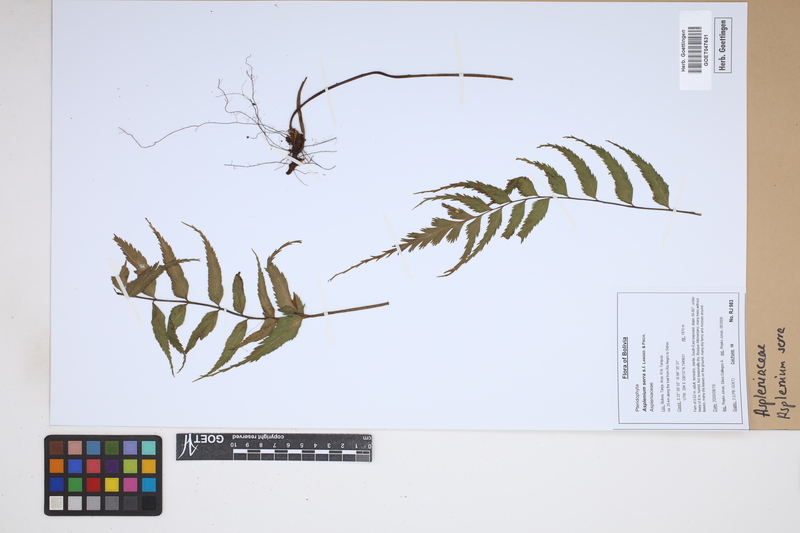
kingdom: Plantae
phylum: Tracheophyta
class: Polypodiopsida
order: Polypodiales
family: Aspleniaceae
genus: Asplenium
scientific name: Asplenium serra
